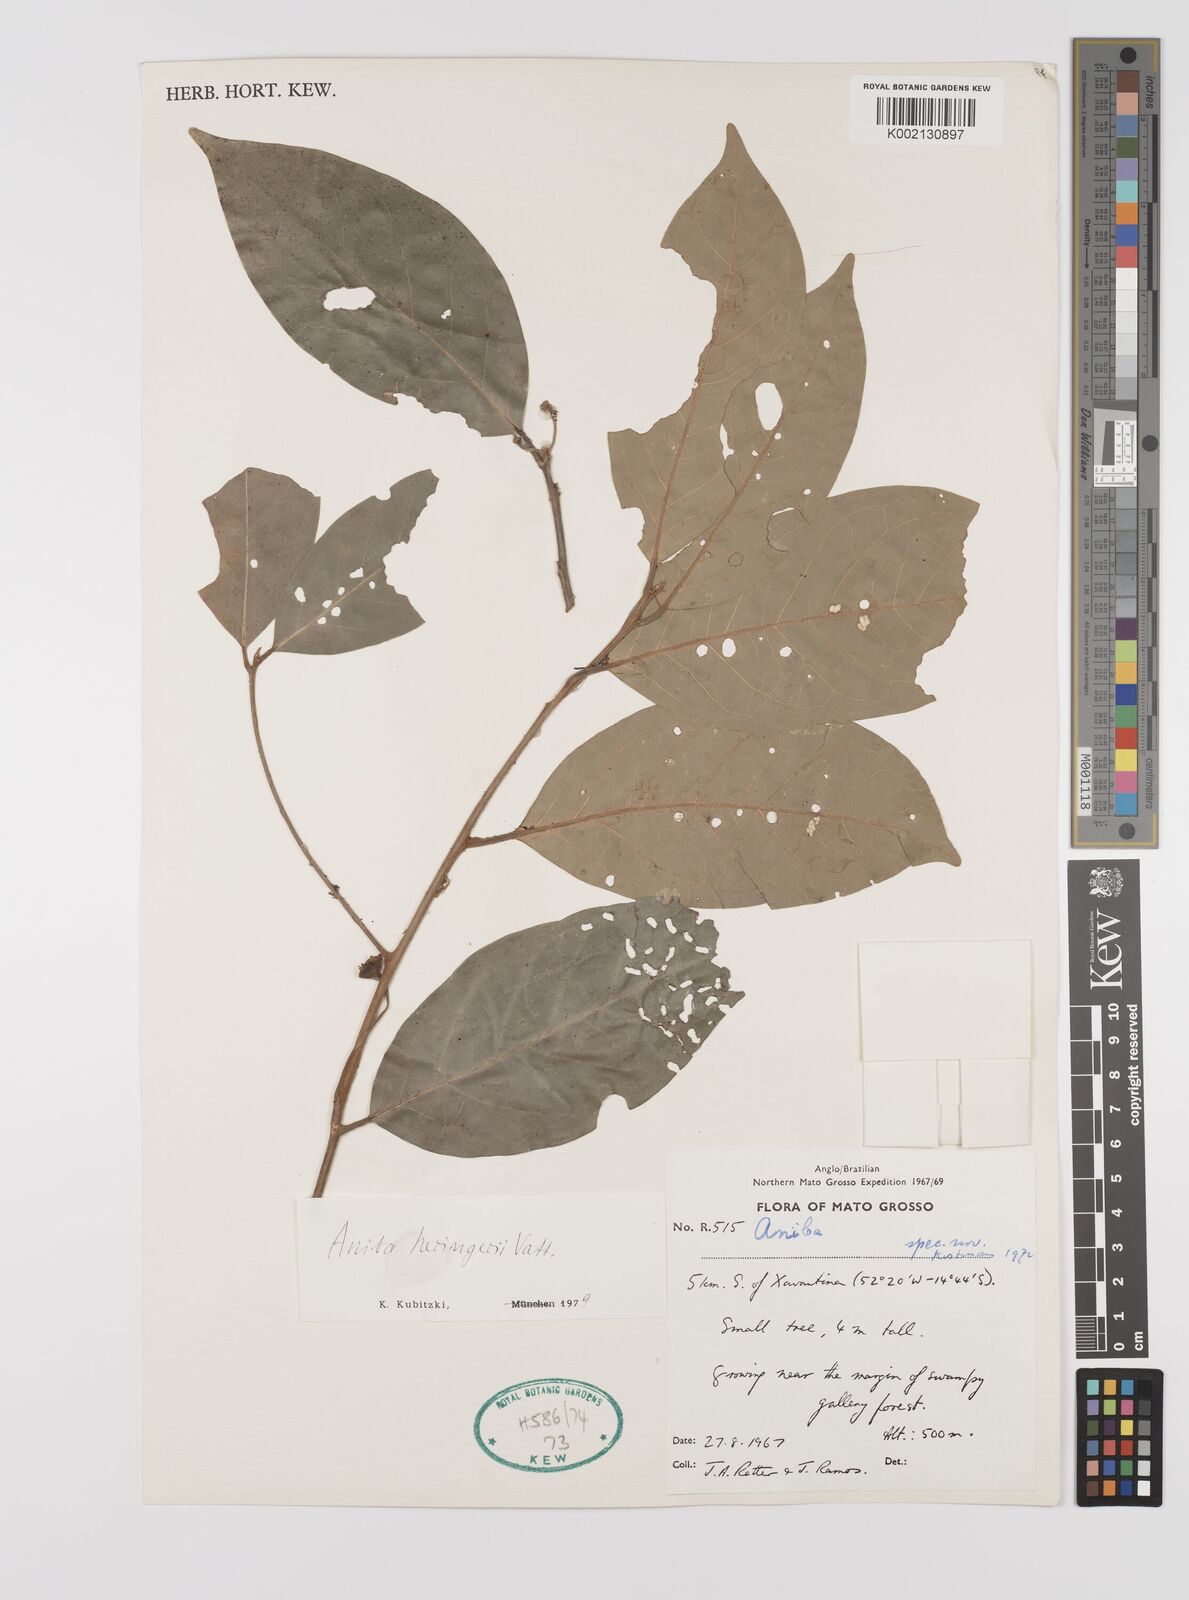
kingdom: Plantae
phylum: Tracheophyta
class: Magnoliopsida
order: Laurales
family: Lauraceae
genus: Aniba
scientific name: Aniba heringeri
